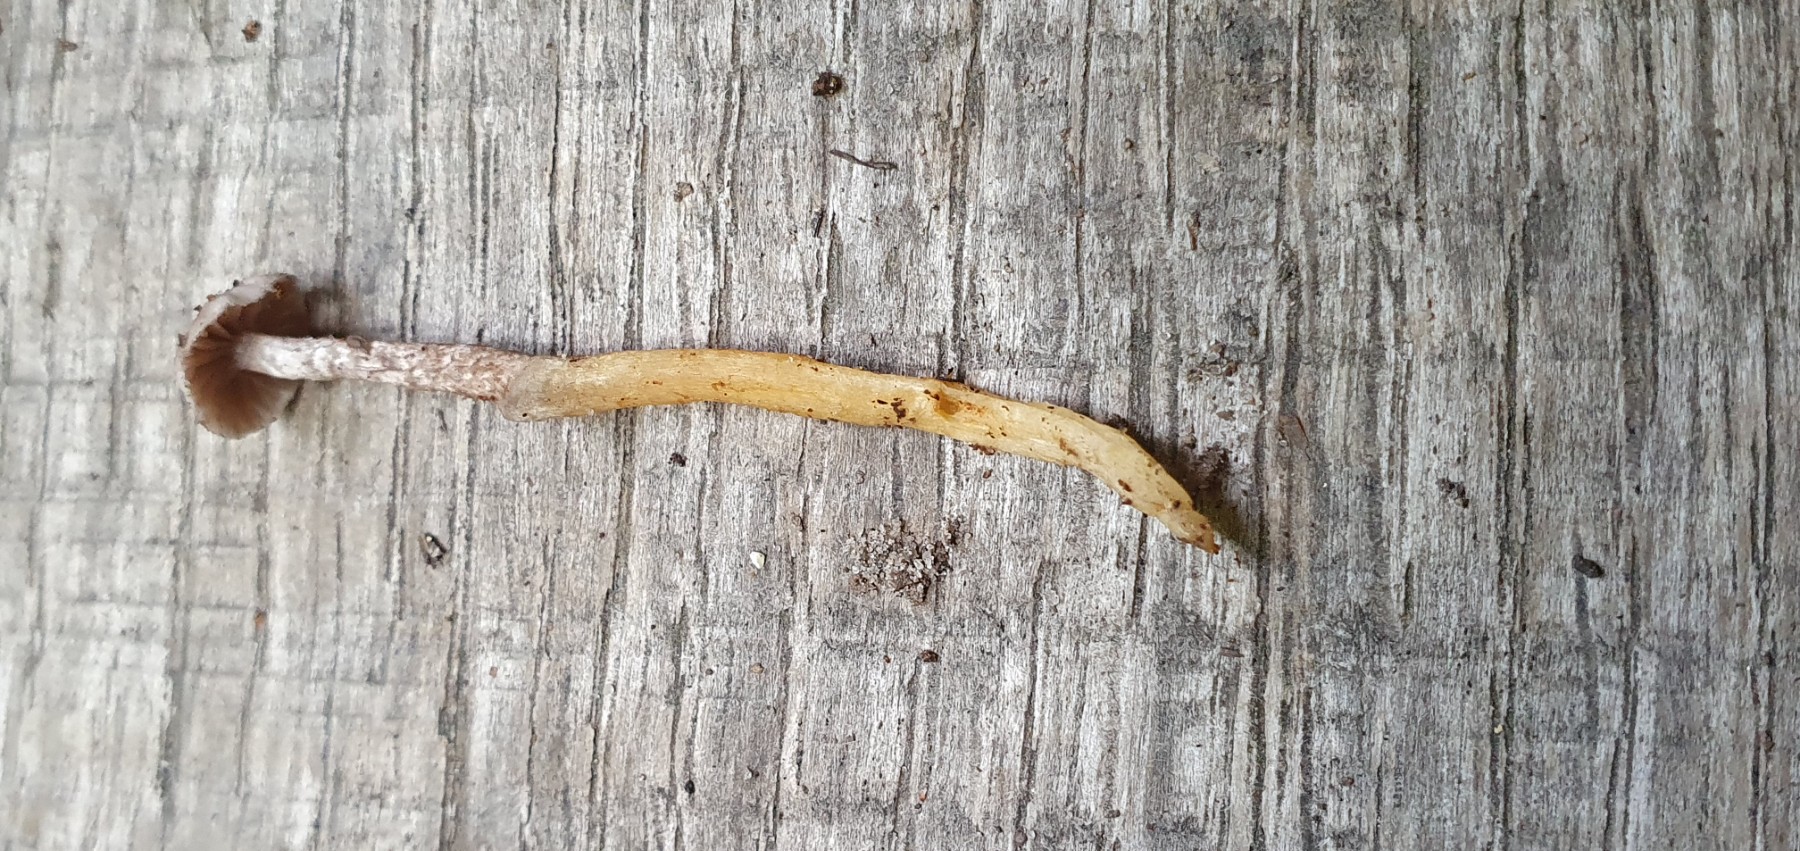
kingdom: Fungi
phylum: Basidiomycota
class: Agaricomycetes
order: Agaricales
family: Squamanitaceae
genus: Dissoderma
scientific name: Dissoderma
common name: knoldfod
